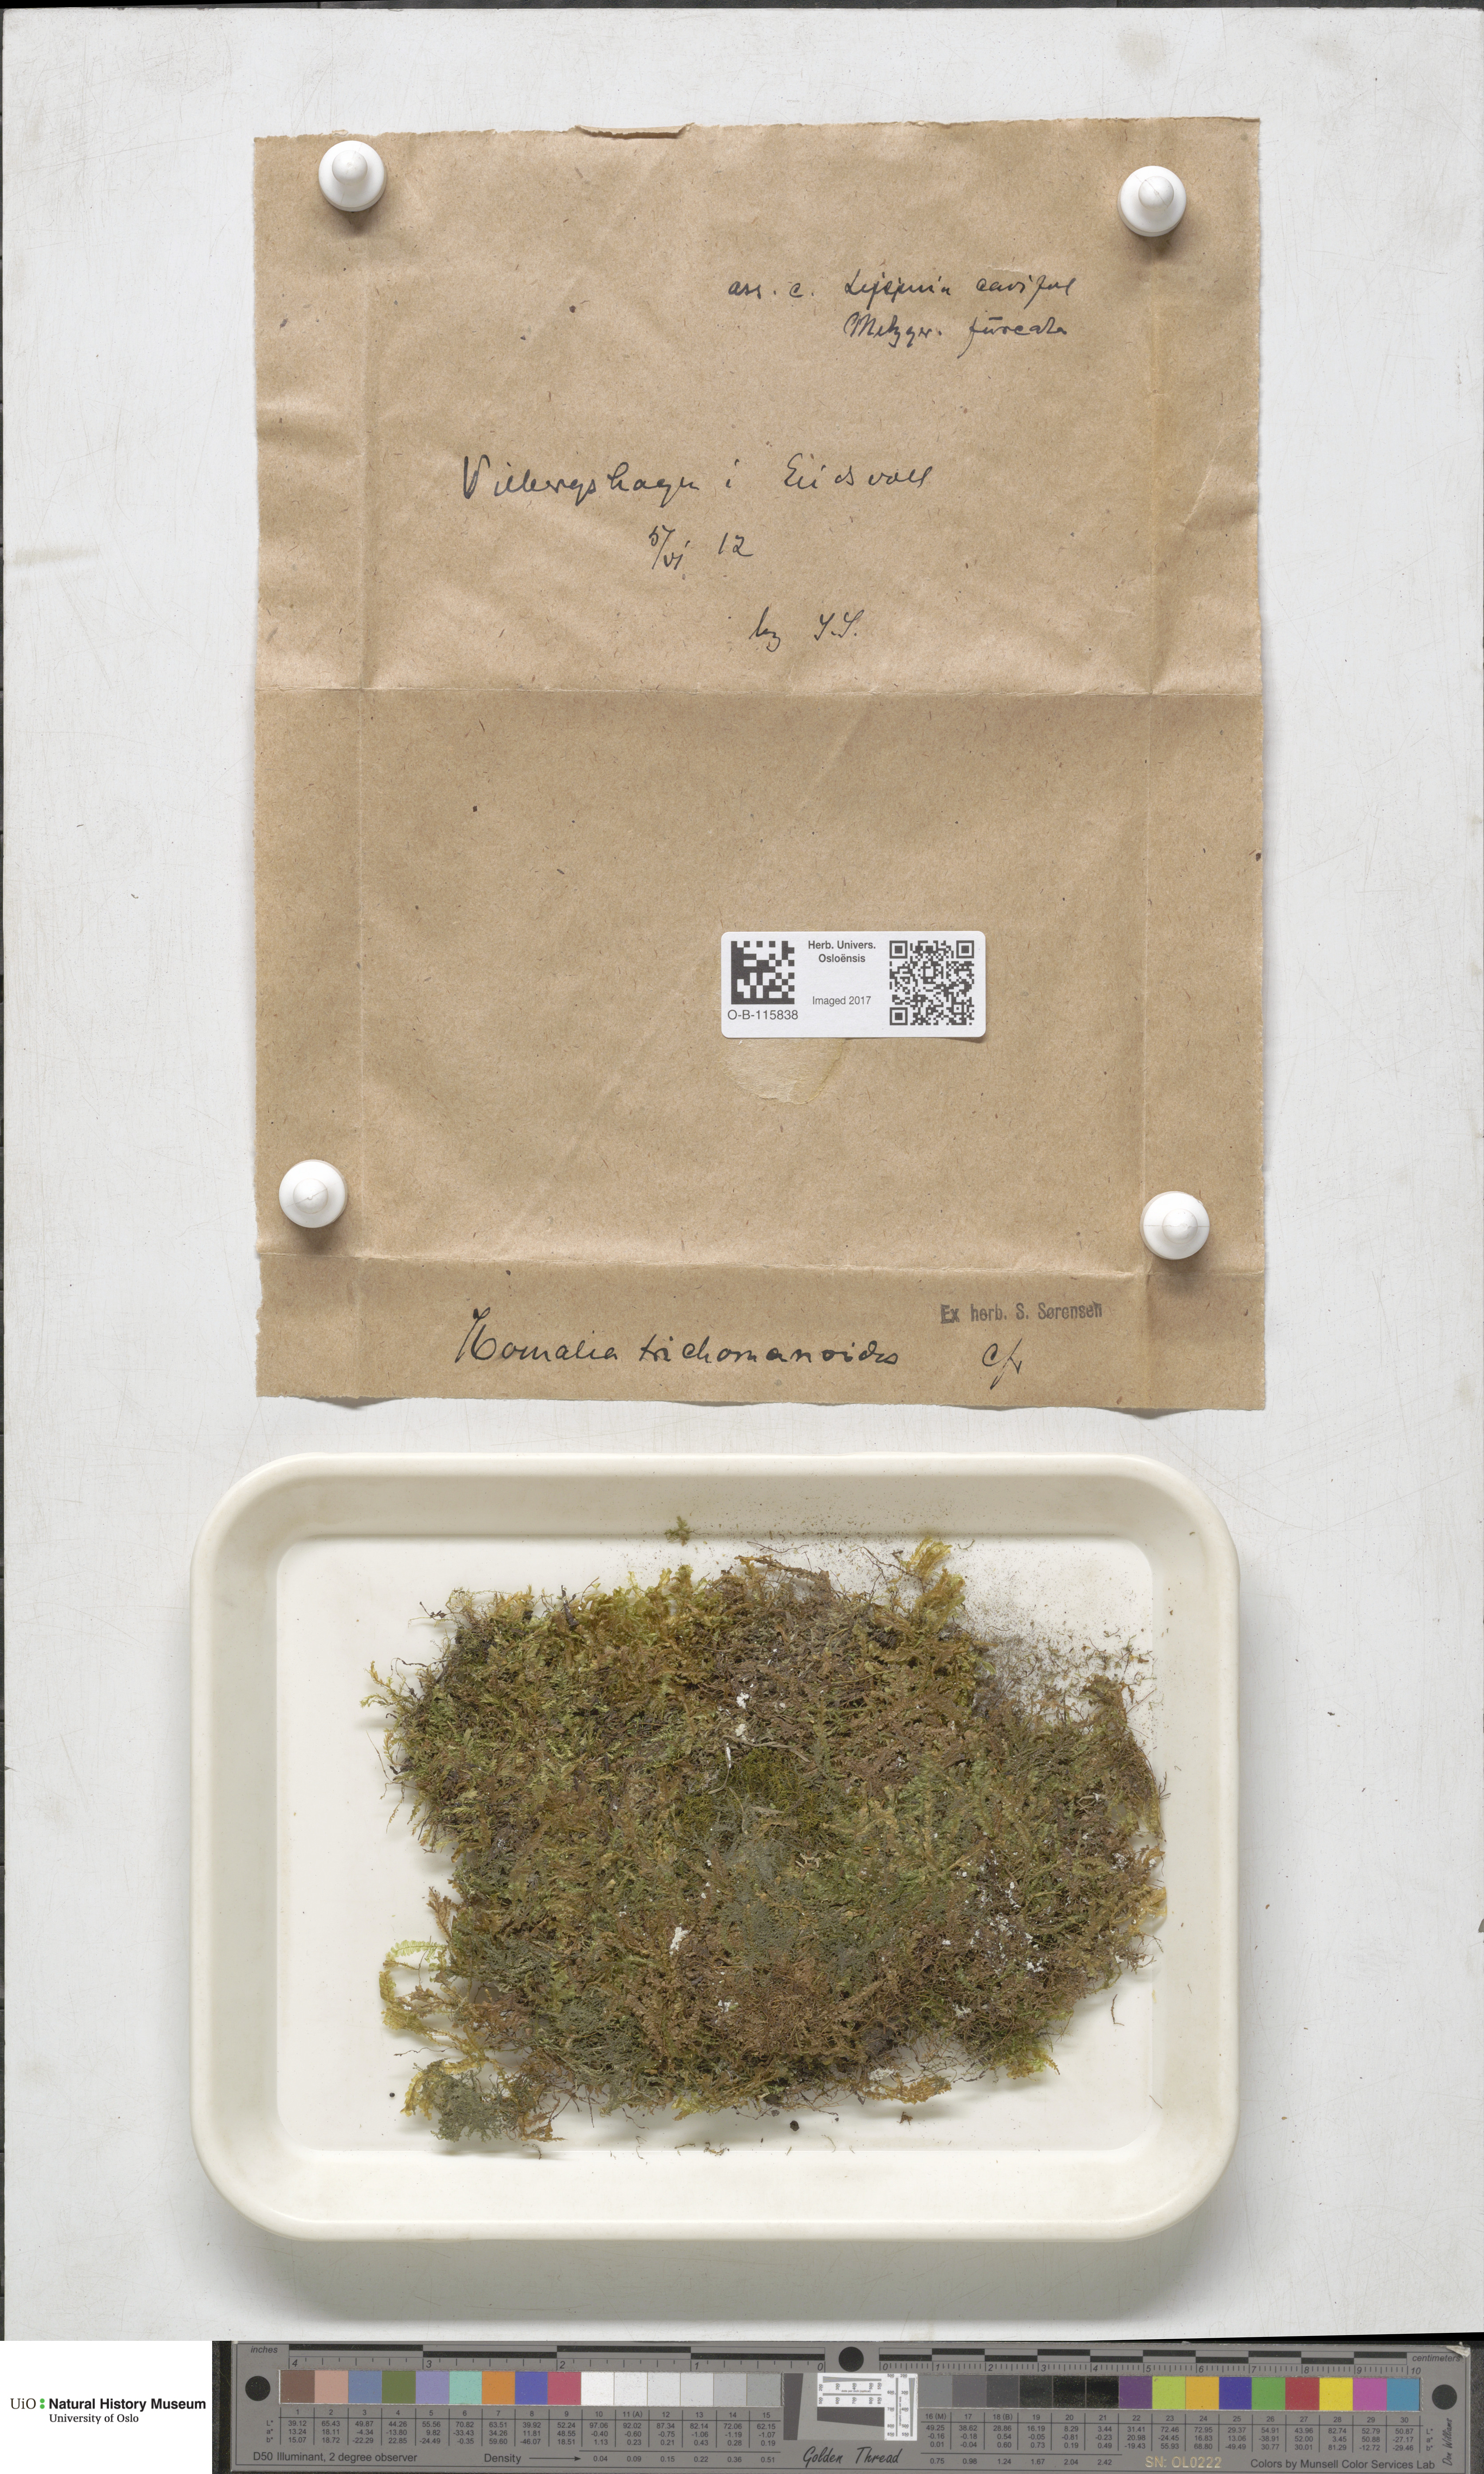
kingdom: Plantae
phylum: Bryophyta
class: Bryopsida
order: Hypnales
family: Neckeraceae
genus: Homalia
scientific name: Homalia trichomanoides
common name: Lime homalia moss
